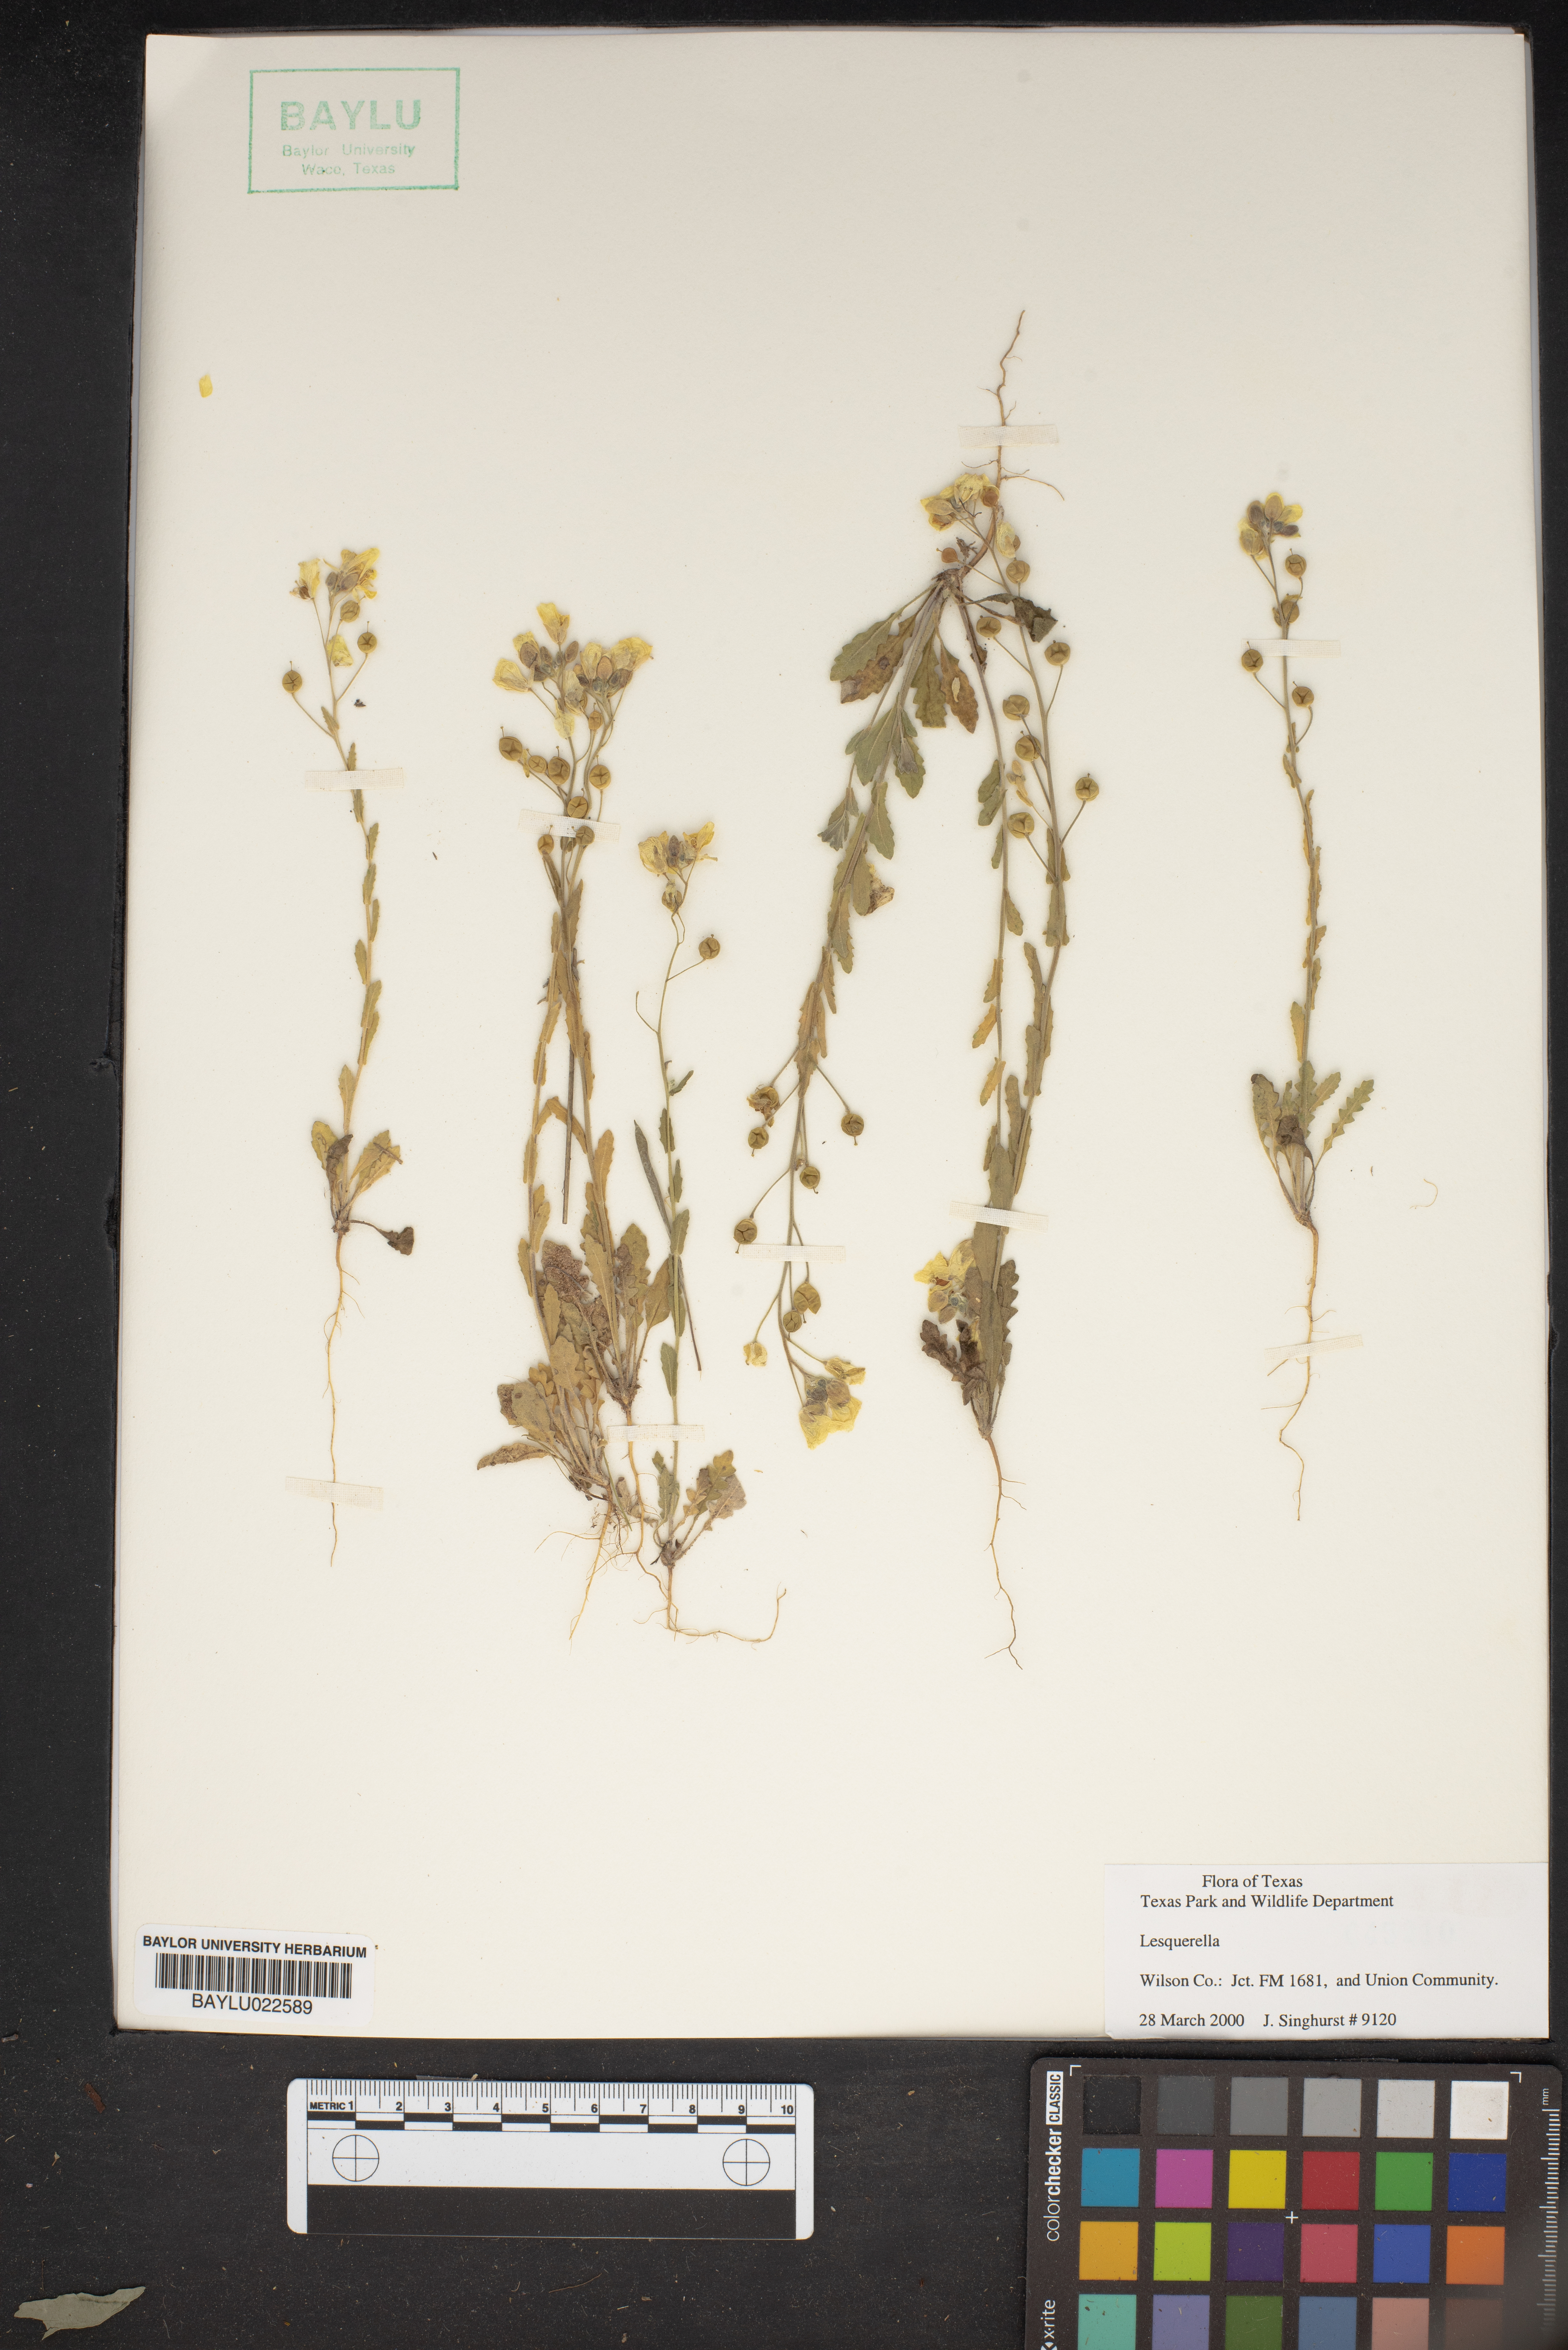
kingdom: Chromista
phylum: Cercozoa
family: Psammonobiotidae
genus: Lesquerella
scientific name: Lesquerella
